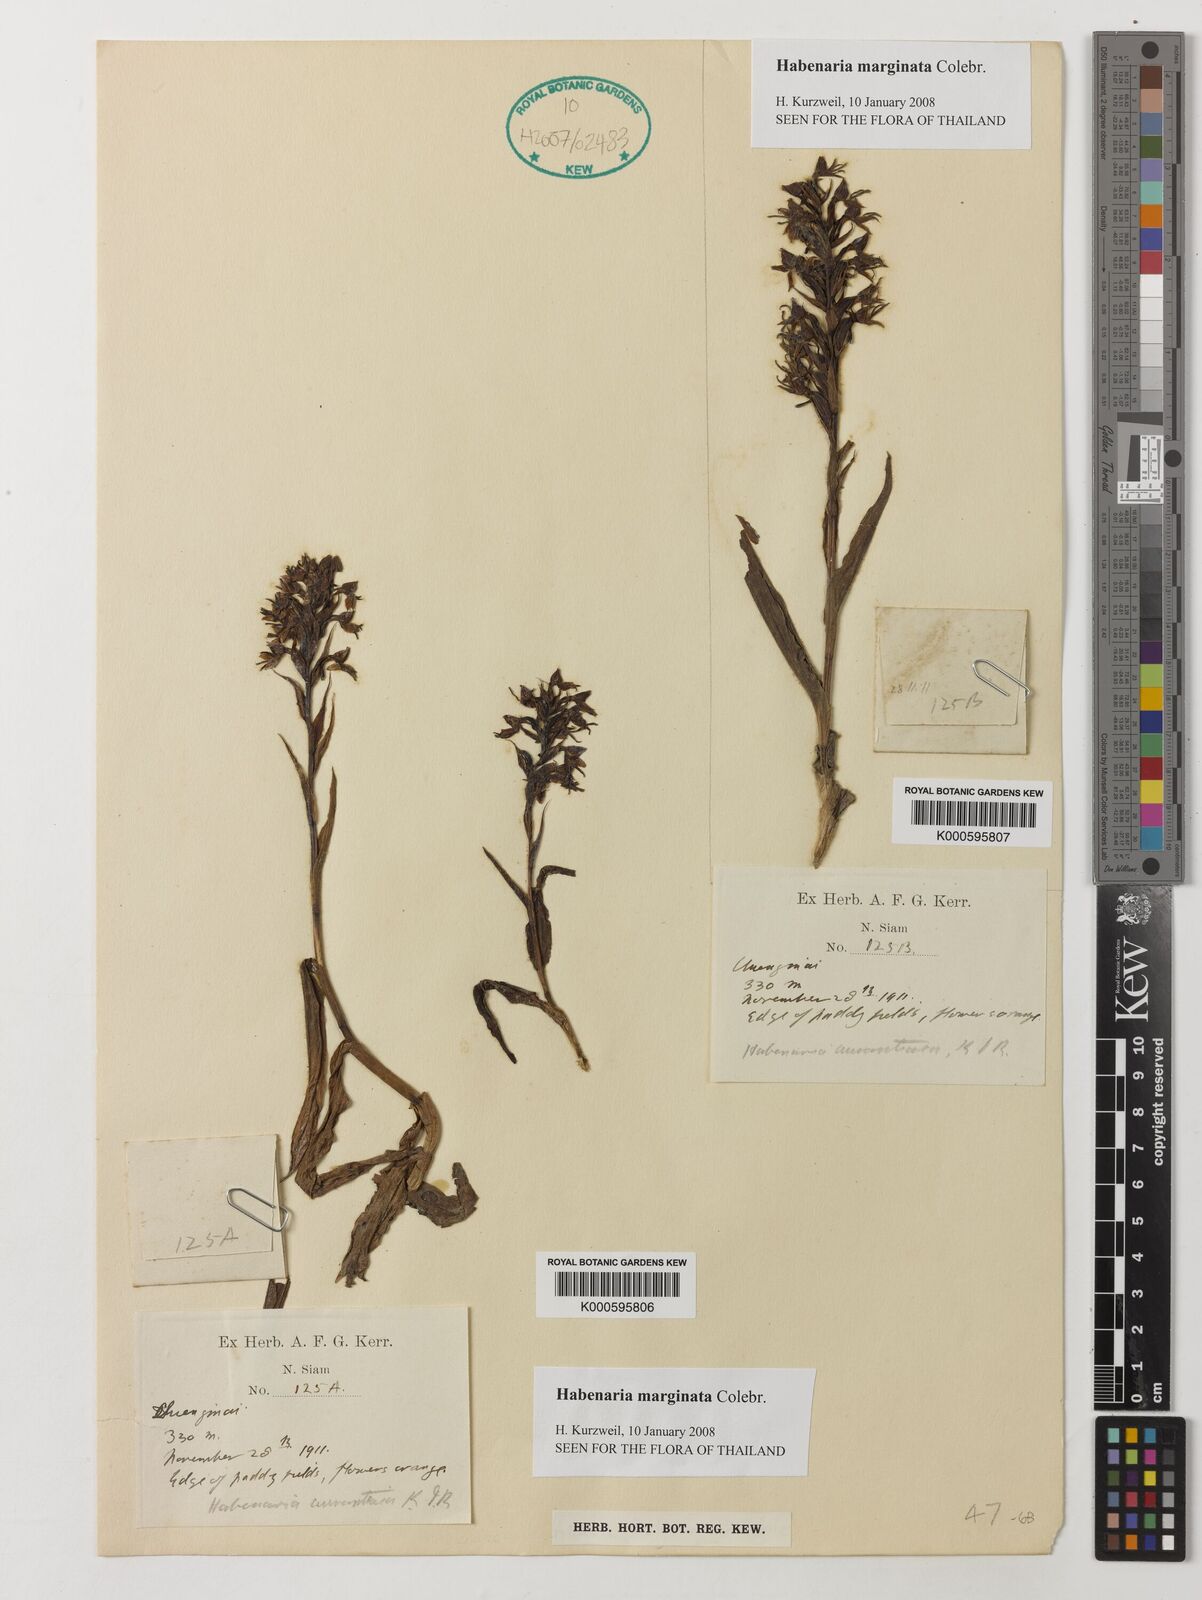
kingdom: Plantae
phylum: Tracheophyta
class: Liliopsida
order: Asparagales
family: Orchidaceae
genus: Habenaria
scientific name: Habenaria marginata
